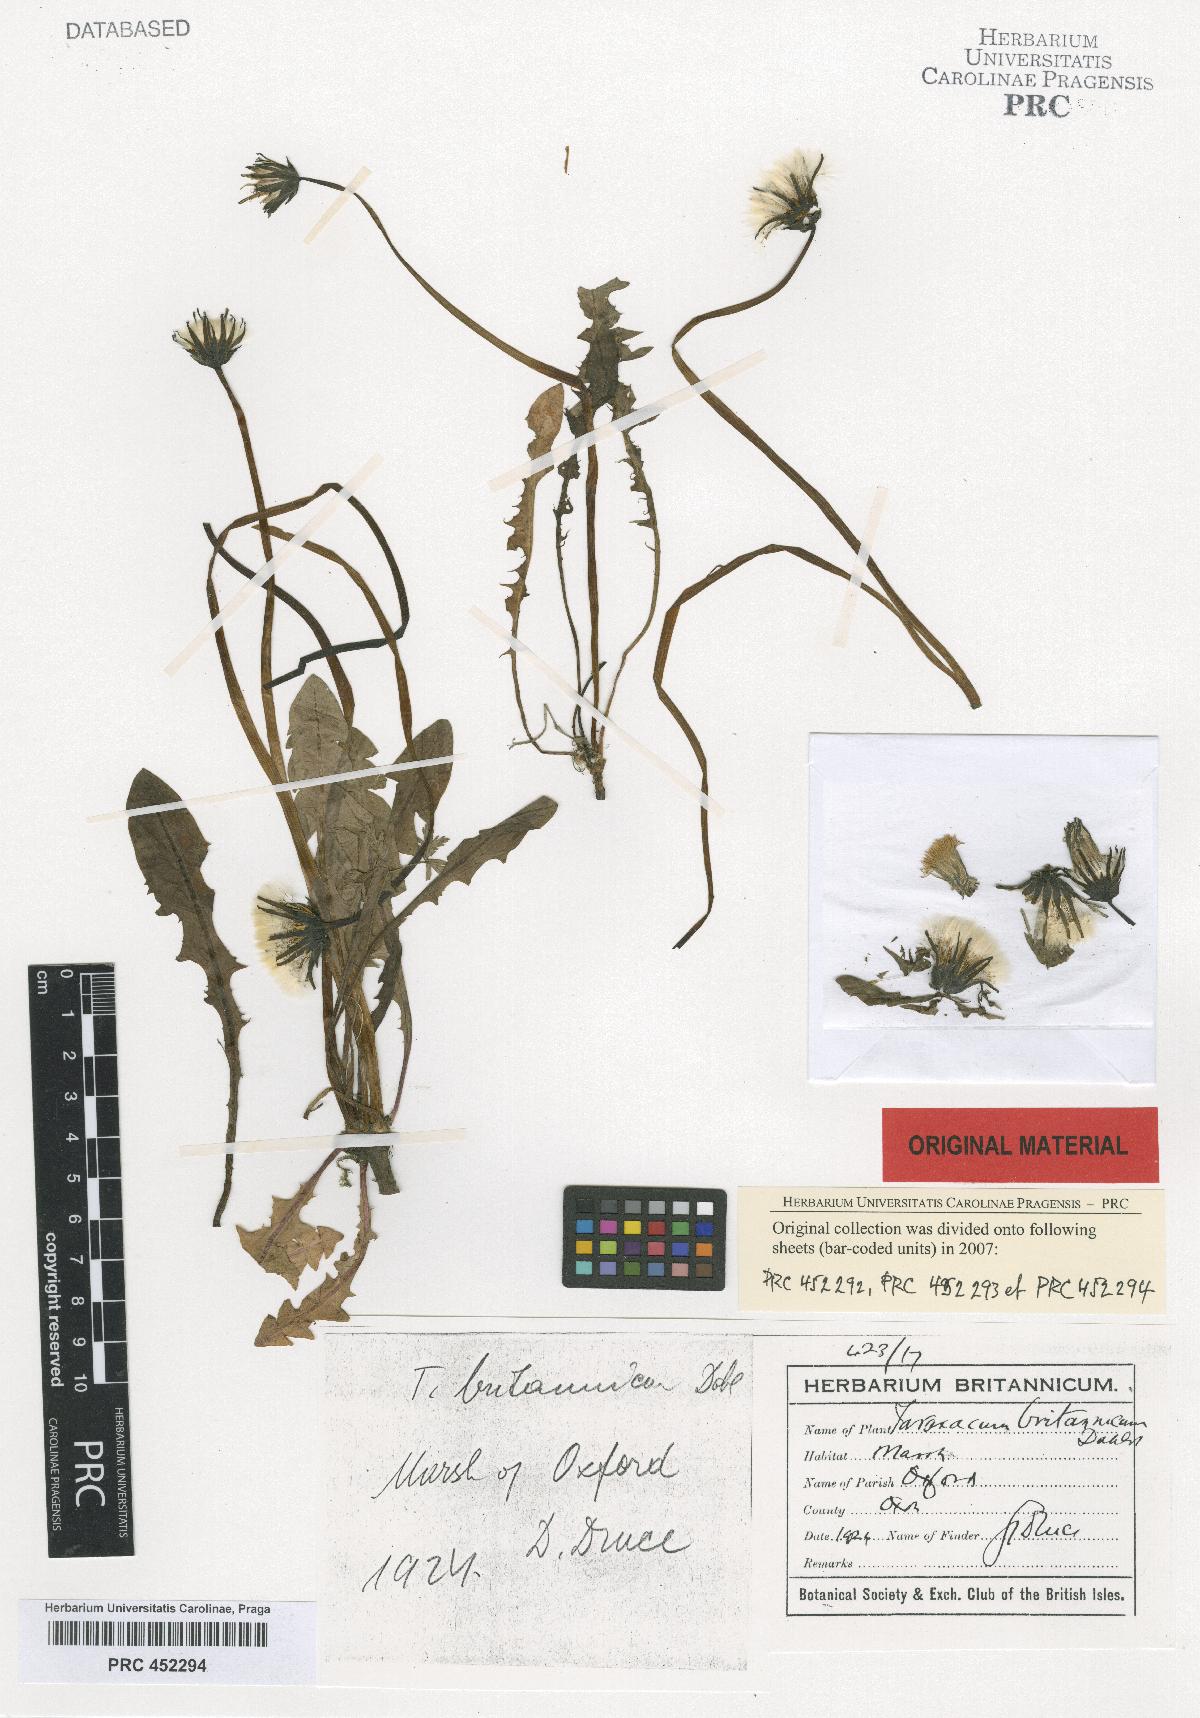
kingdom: Plantae
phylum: Tracheophyta
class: Magnoliopsida
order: Asterales
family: Asteraceae
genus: Taraxacum
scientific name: Taraxacum britannicum
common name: British dandelion
